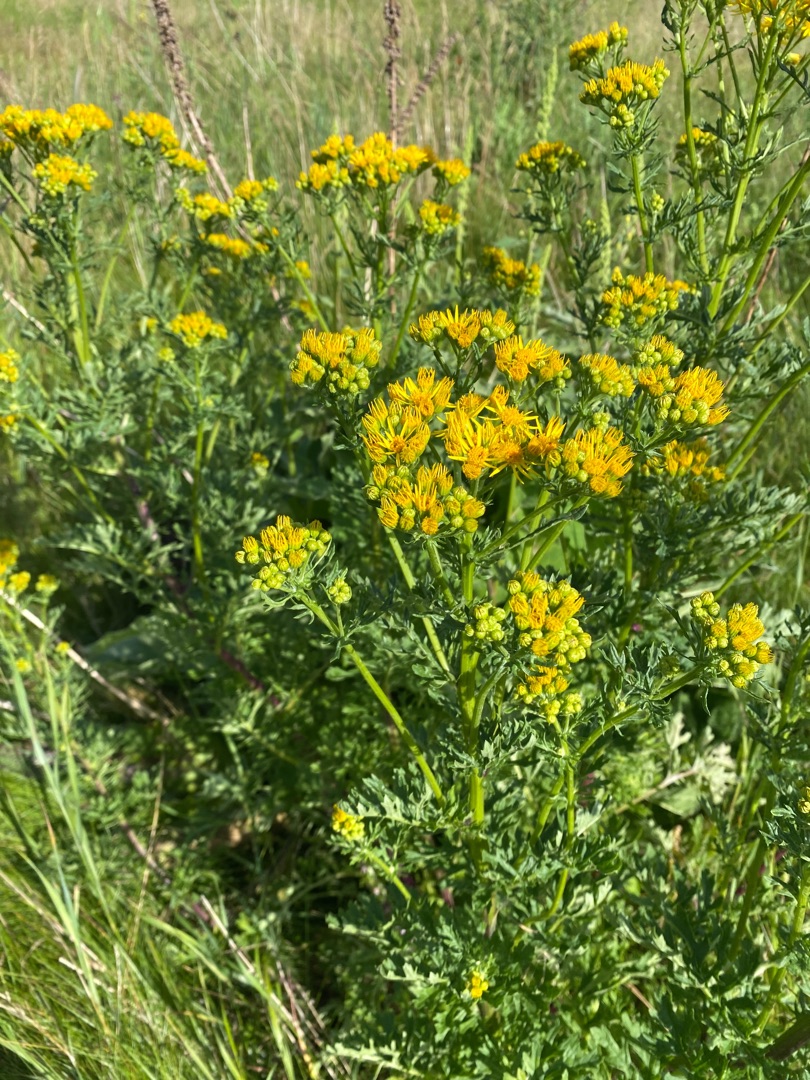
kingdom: Plantae
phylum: Tracheophyta
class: Magnoliopsida
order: Asterales
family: Asteraceae
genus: Jacobaea
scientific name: Jacobaea vulgaris
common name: Eng-brandbæger
